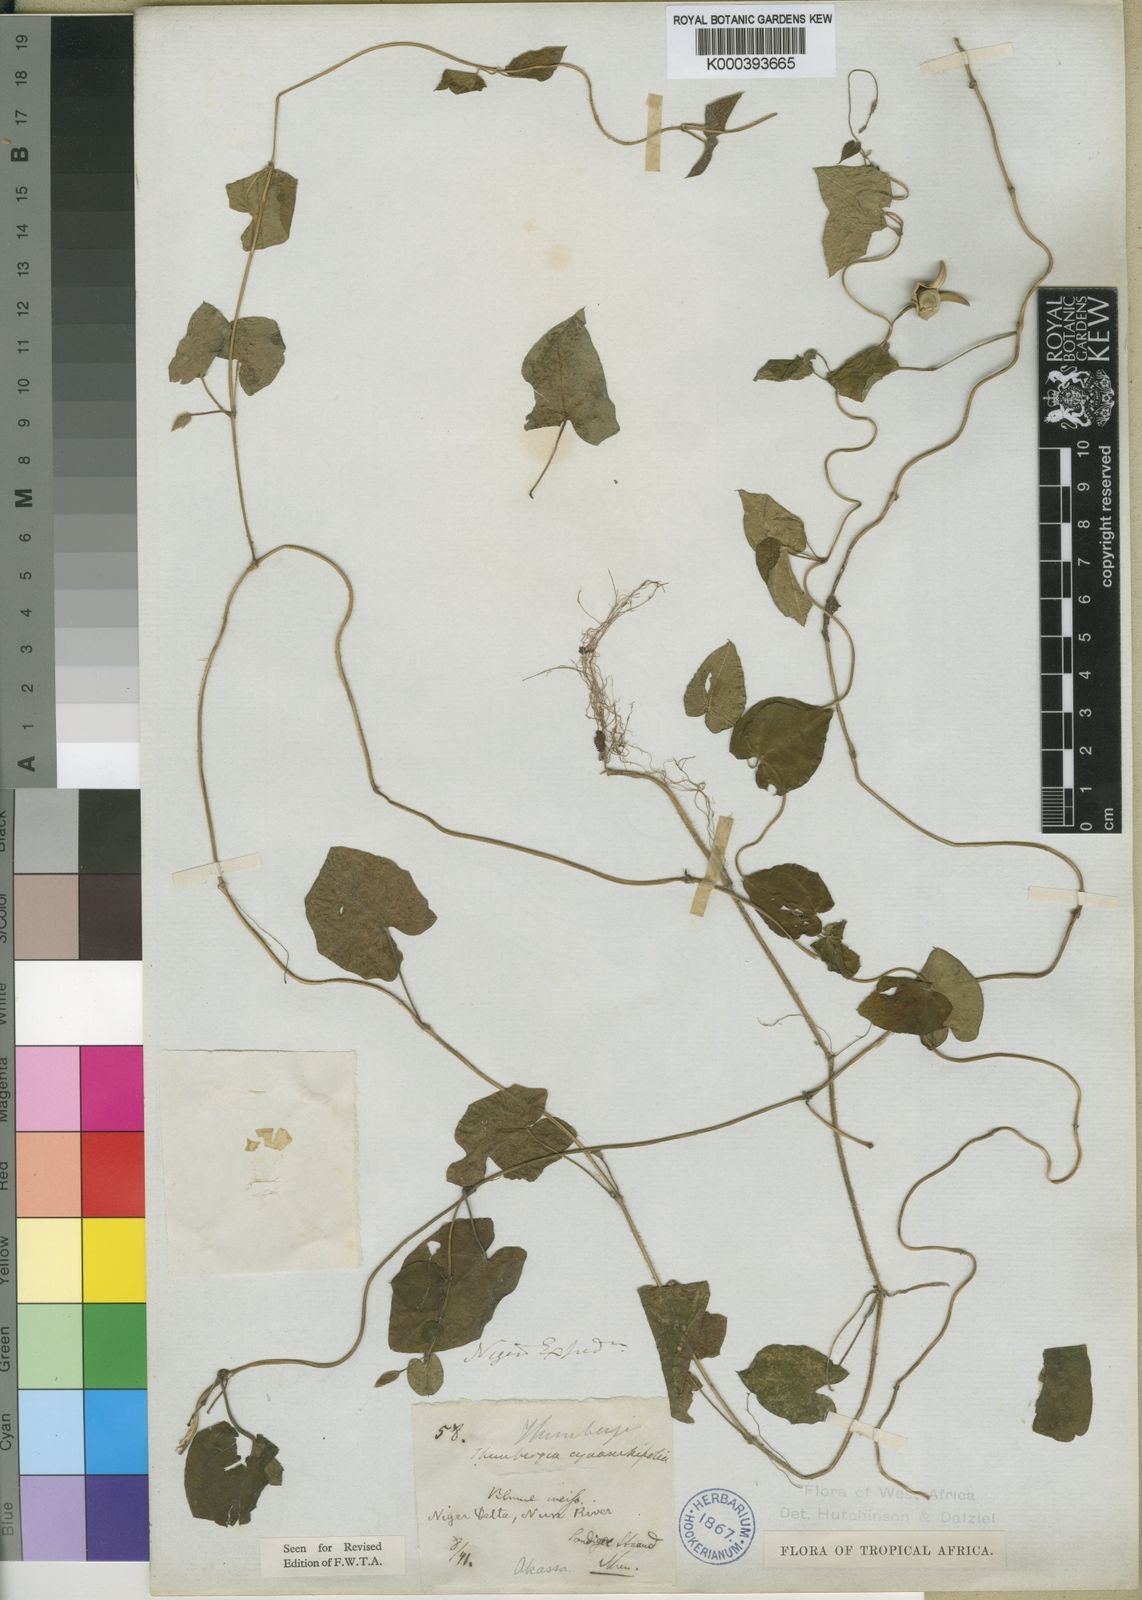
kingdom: Plantae
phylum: Tracheophyta
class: Magnoliopsida
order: Lamiales
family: Acanthaceae
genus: Thunbergia
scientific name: Thunbergia cynanchifolia
